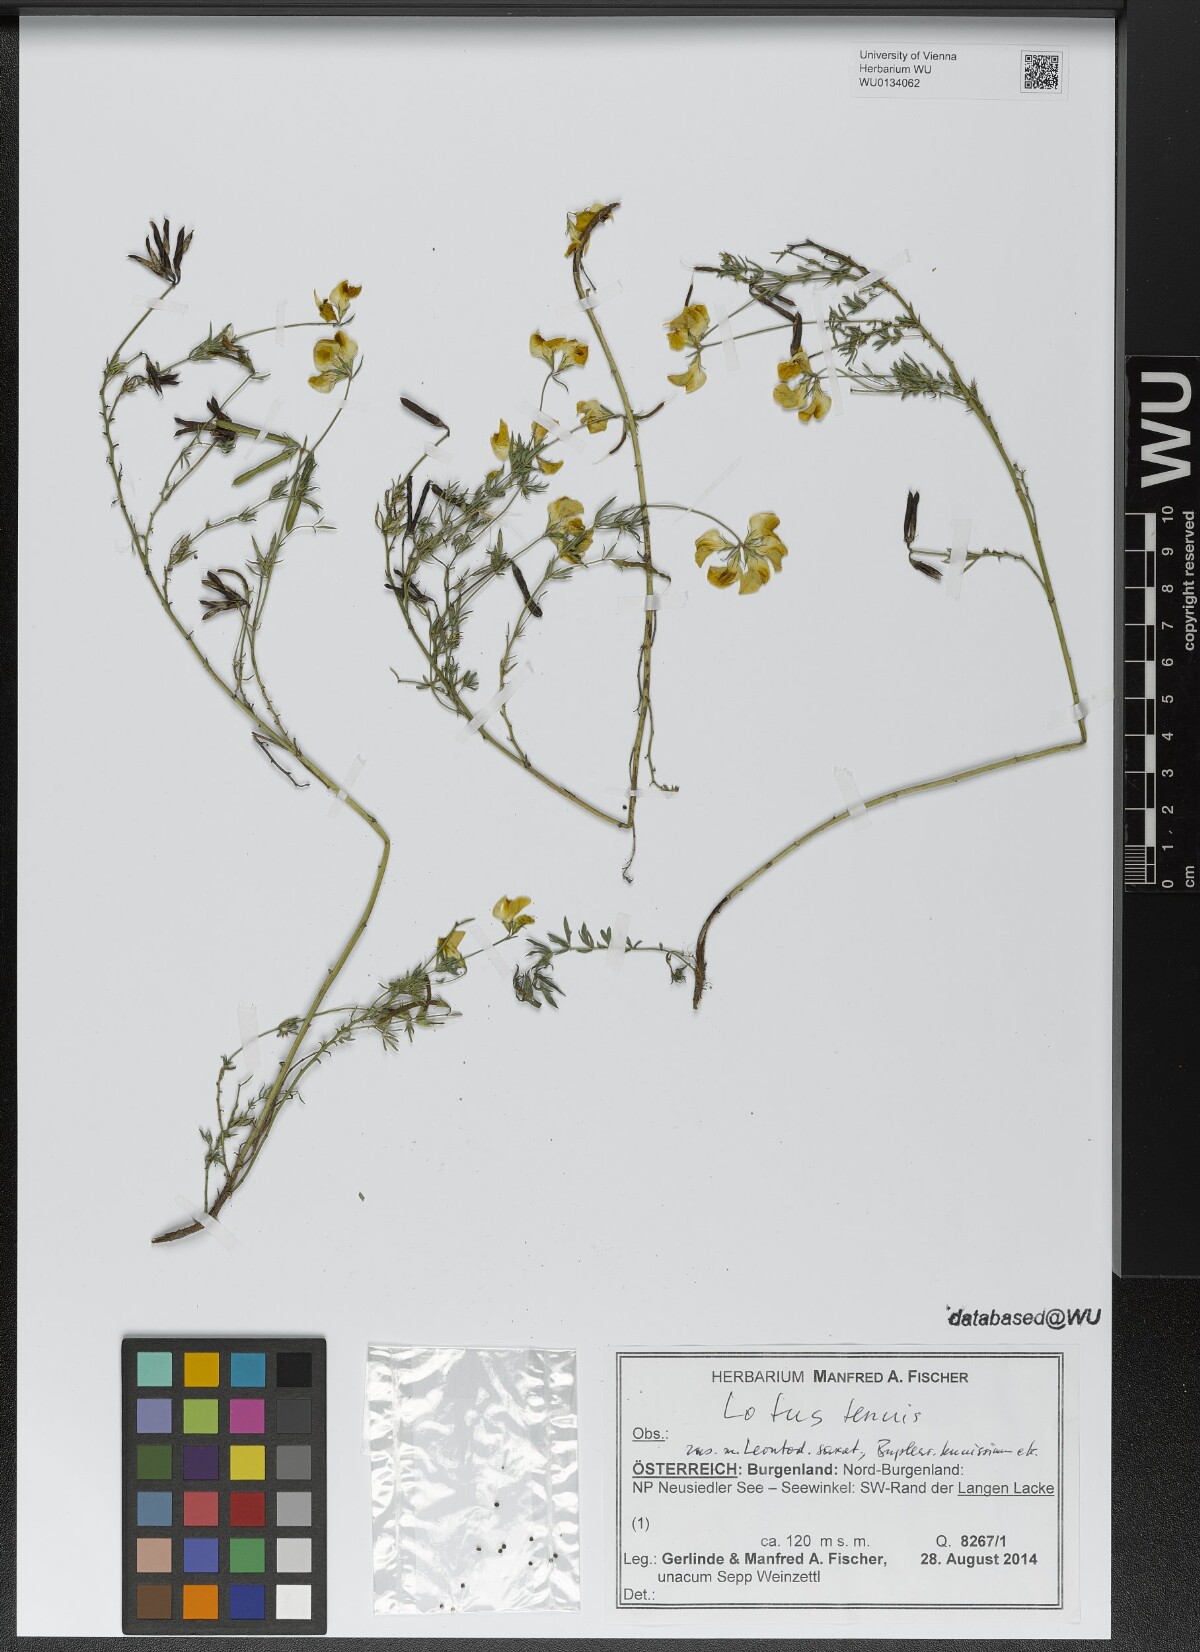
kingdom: Plantae
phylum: Tracheophyta
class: Magnoliopsida
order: Fabales
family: Fabaceae
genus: Lotus
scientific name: Lotus tenuis
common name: Narrow-leaved bird's-foot-trefoil
